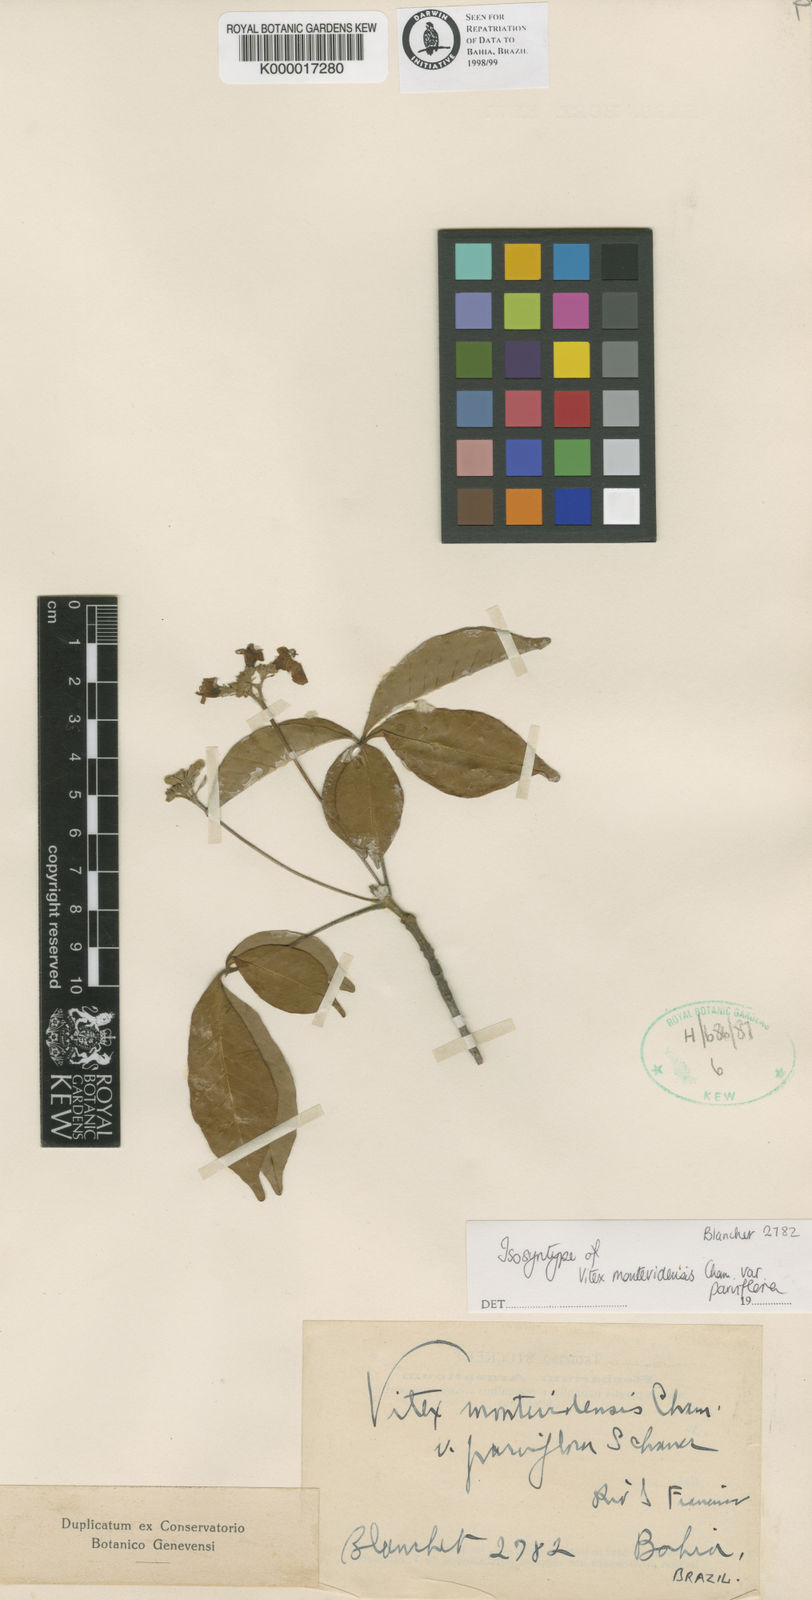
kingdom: Plantae
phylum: Tracheophyta
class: Magnoliopsida
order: Lamiales
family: Lamiaceae
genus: Vitex
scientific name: Vitex schaueriana
